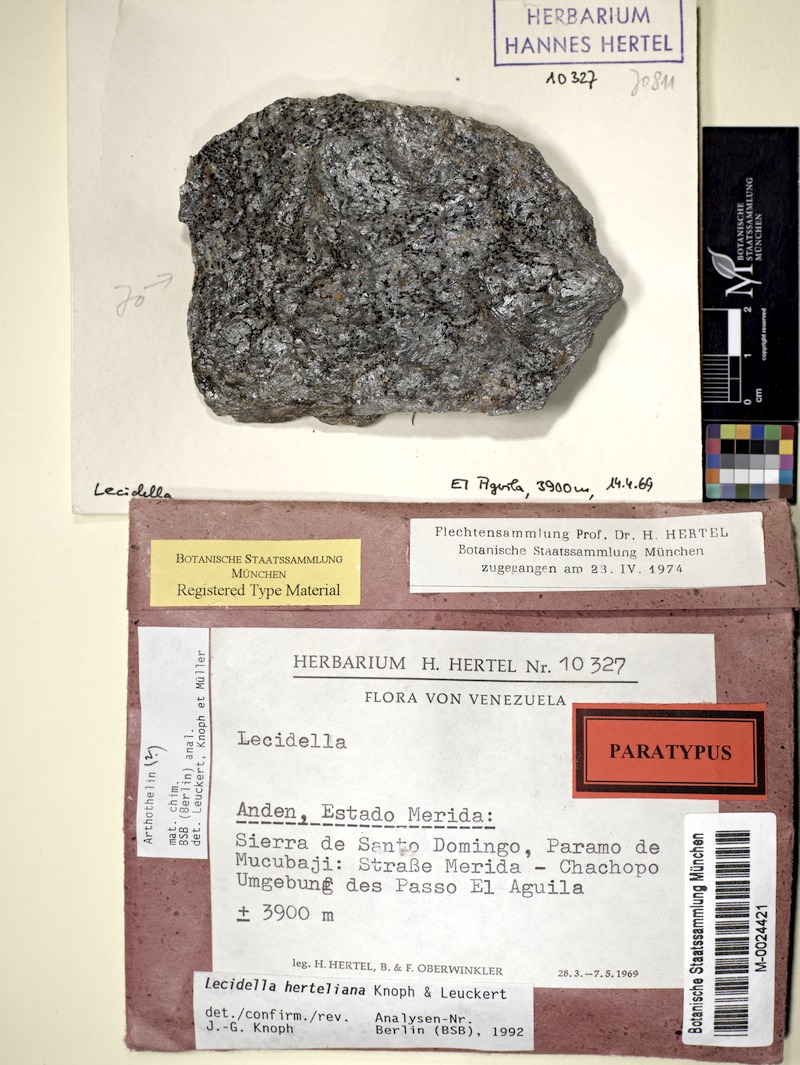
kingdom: Fungi
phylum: Ascomycota
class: Lecanoromycetes
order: Lecanorales
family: Lecanoraceae
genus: Lecidella
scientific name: Lecidella
